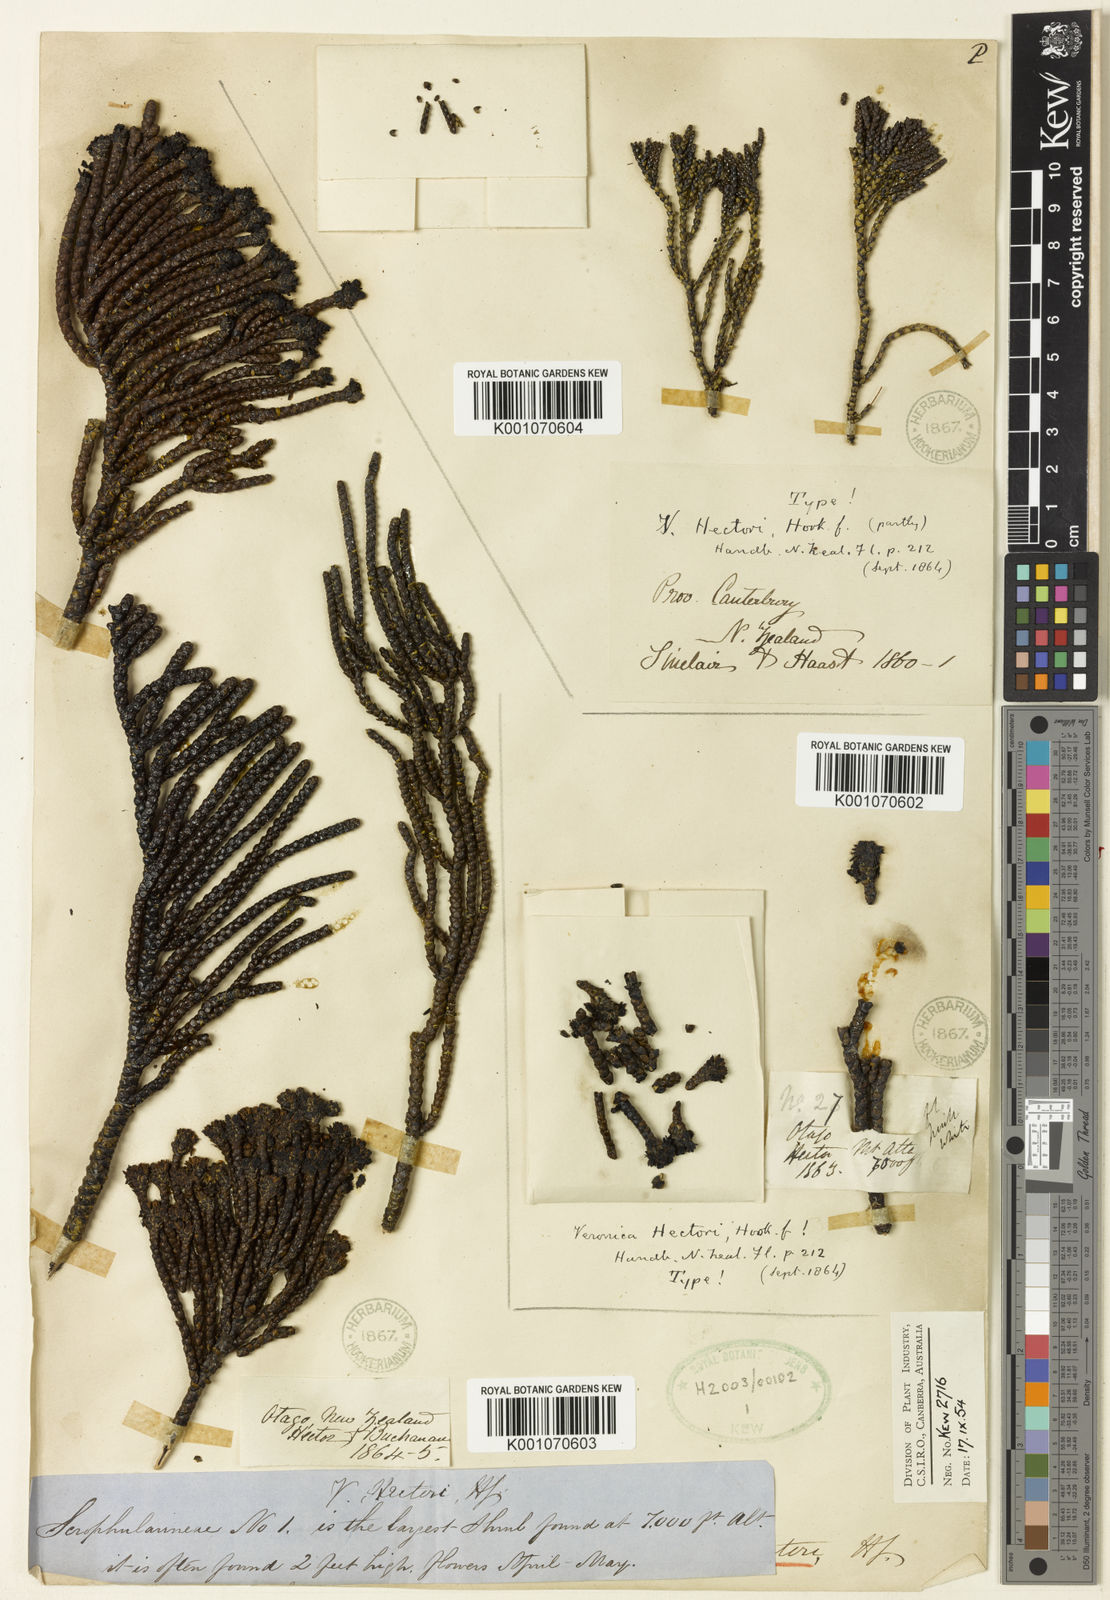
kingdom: Plantae
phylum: Tracheophyta
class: Magnoliopsida
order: Lamiales
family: Plantaginaceae
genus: Veronica
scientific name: Veronica hectorii
